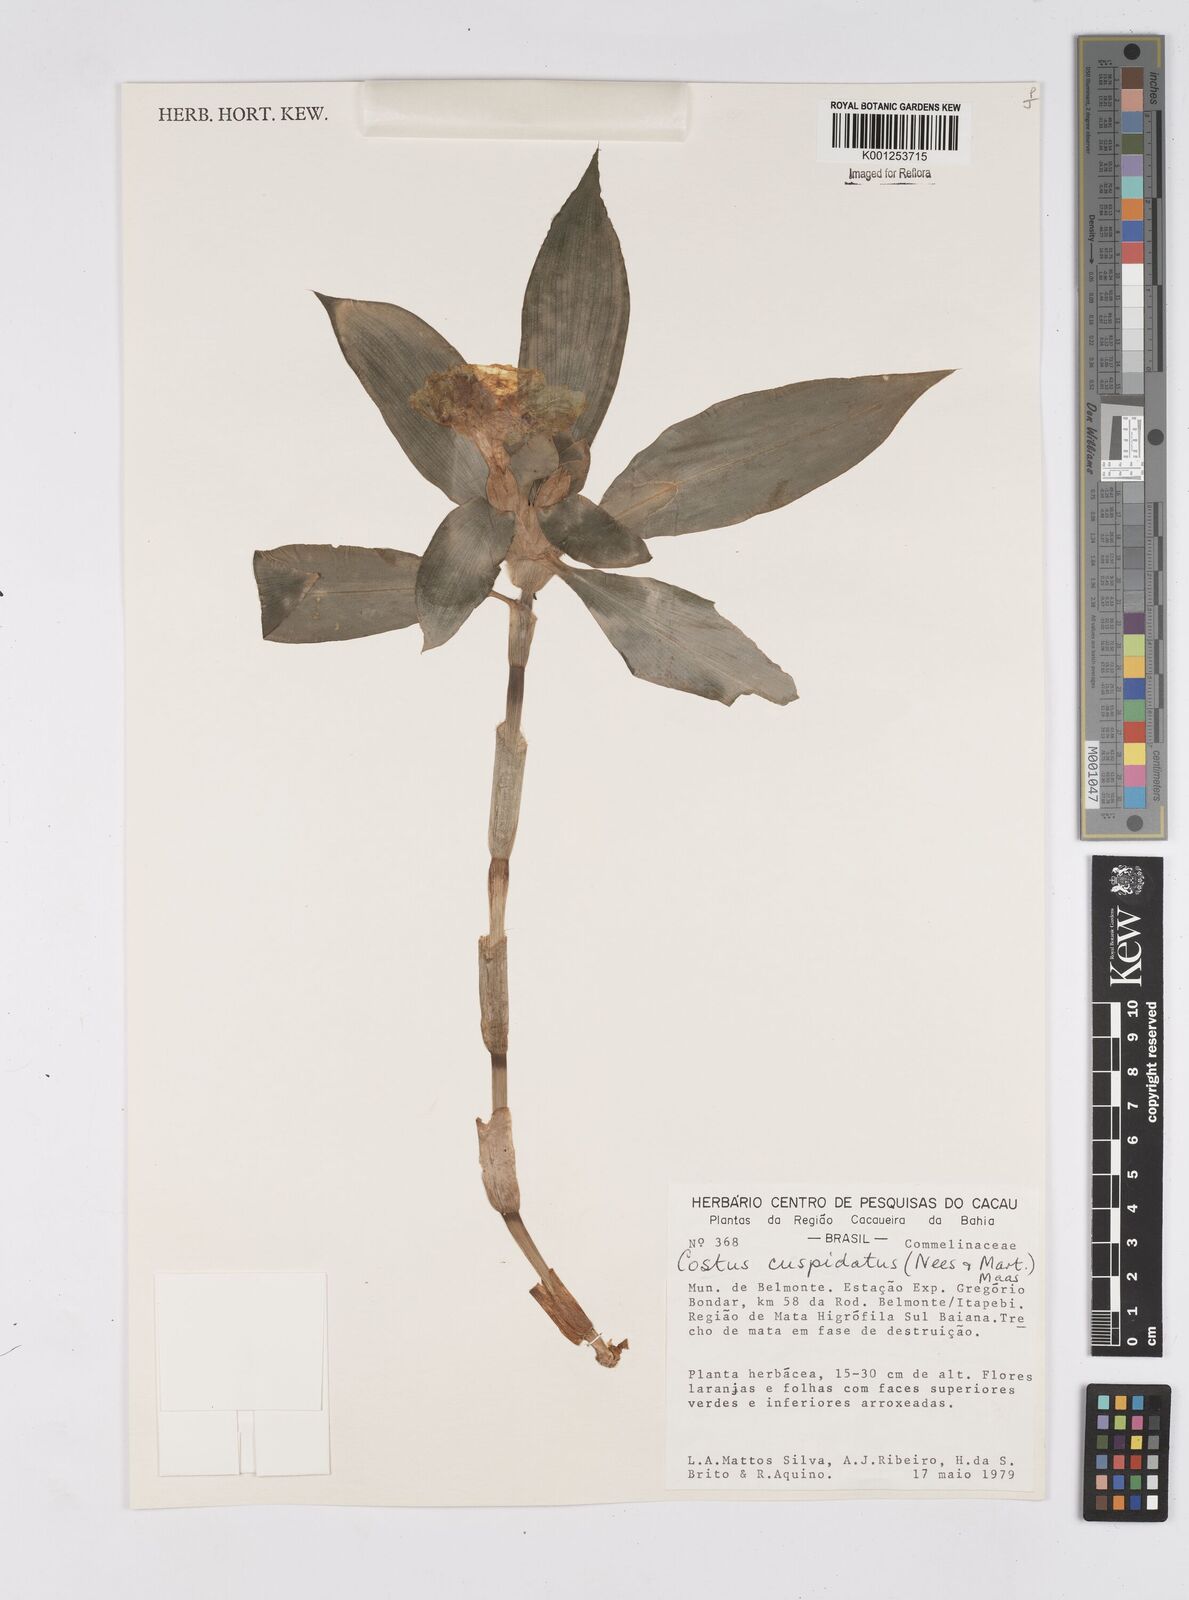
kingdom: Plantae
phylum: Tracheophyta
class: Liliopsida
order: Zingiberales
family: Costaceae
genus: Chamaecostus
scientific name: Chamaecostus cuspidatus
